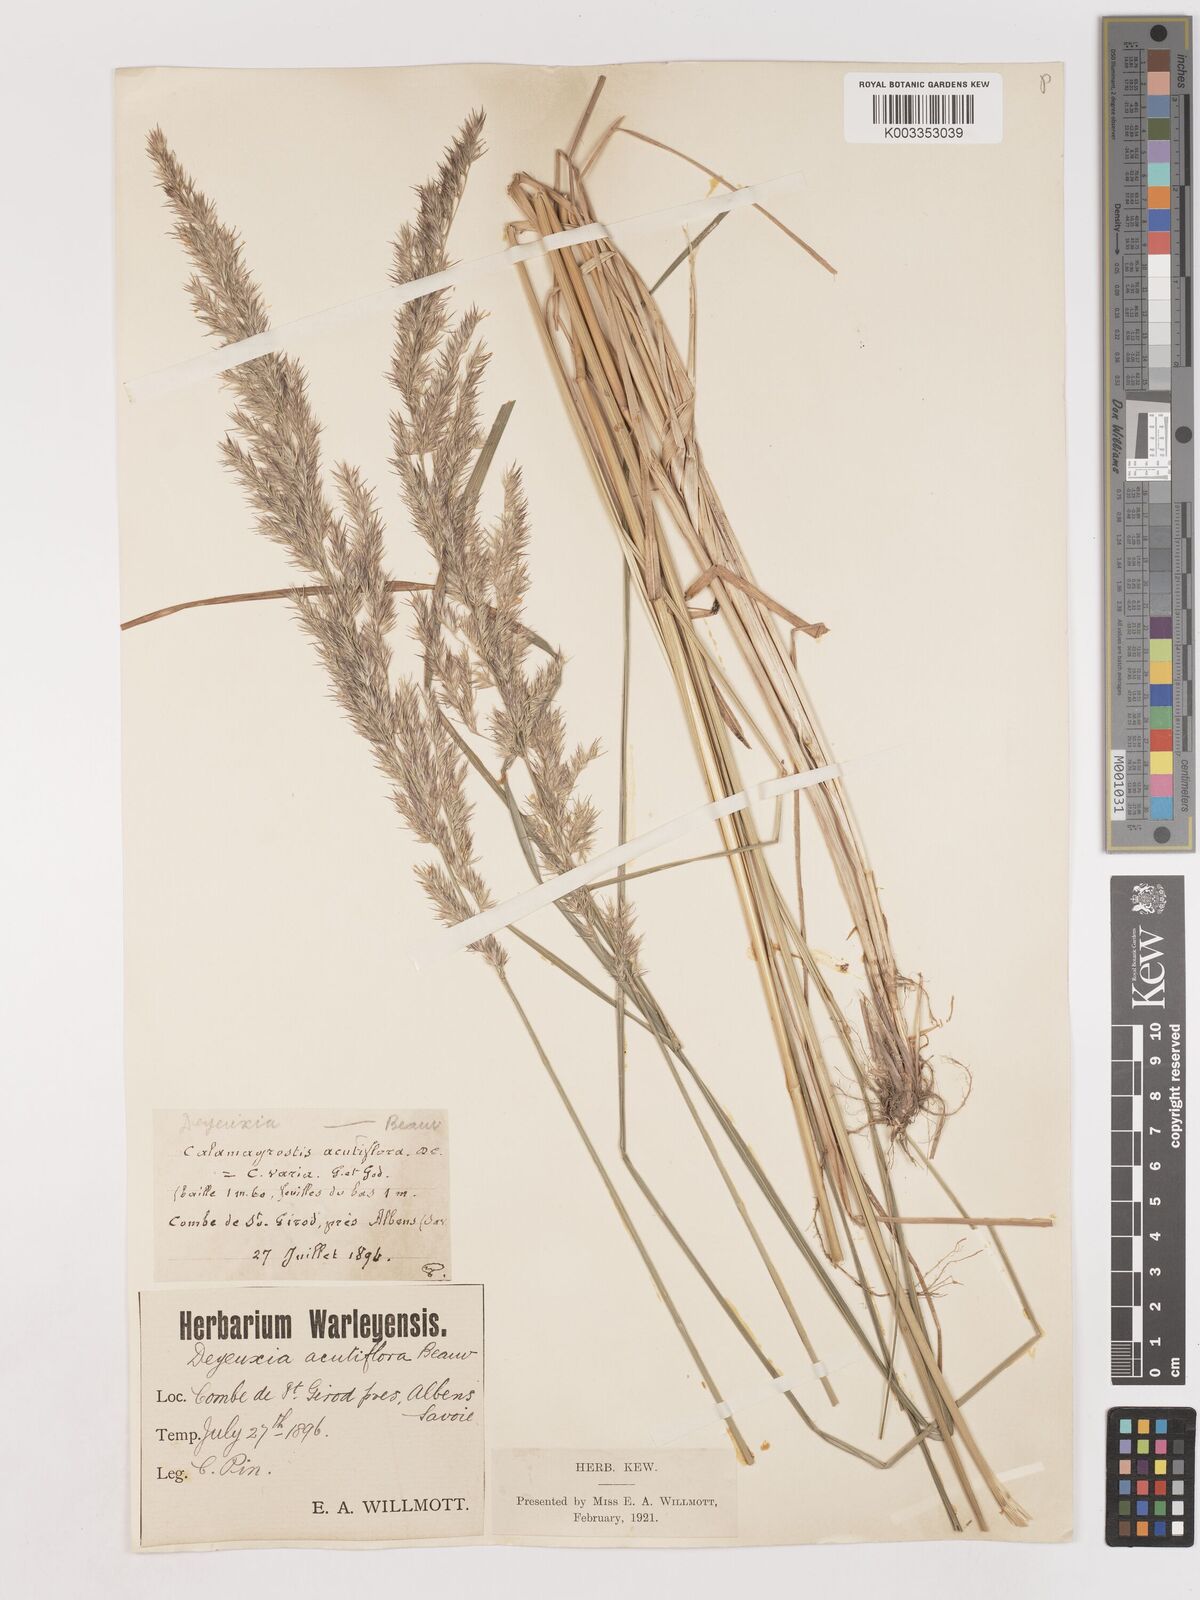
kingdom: Plantae
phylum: Tracheophyta
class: Liliopsida
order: Poales
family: Poaceae
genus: Calamagrostis
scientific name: Calamagrostis epigejos
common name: Wood small-reed
